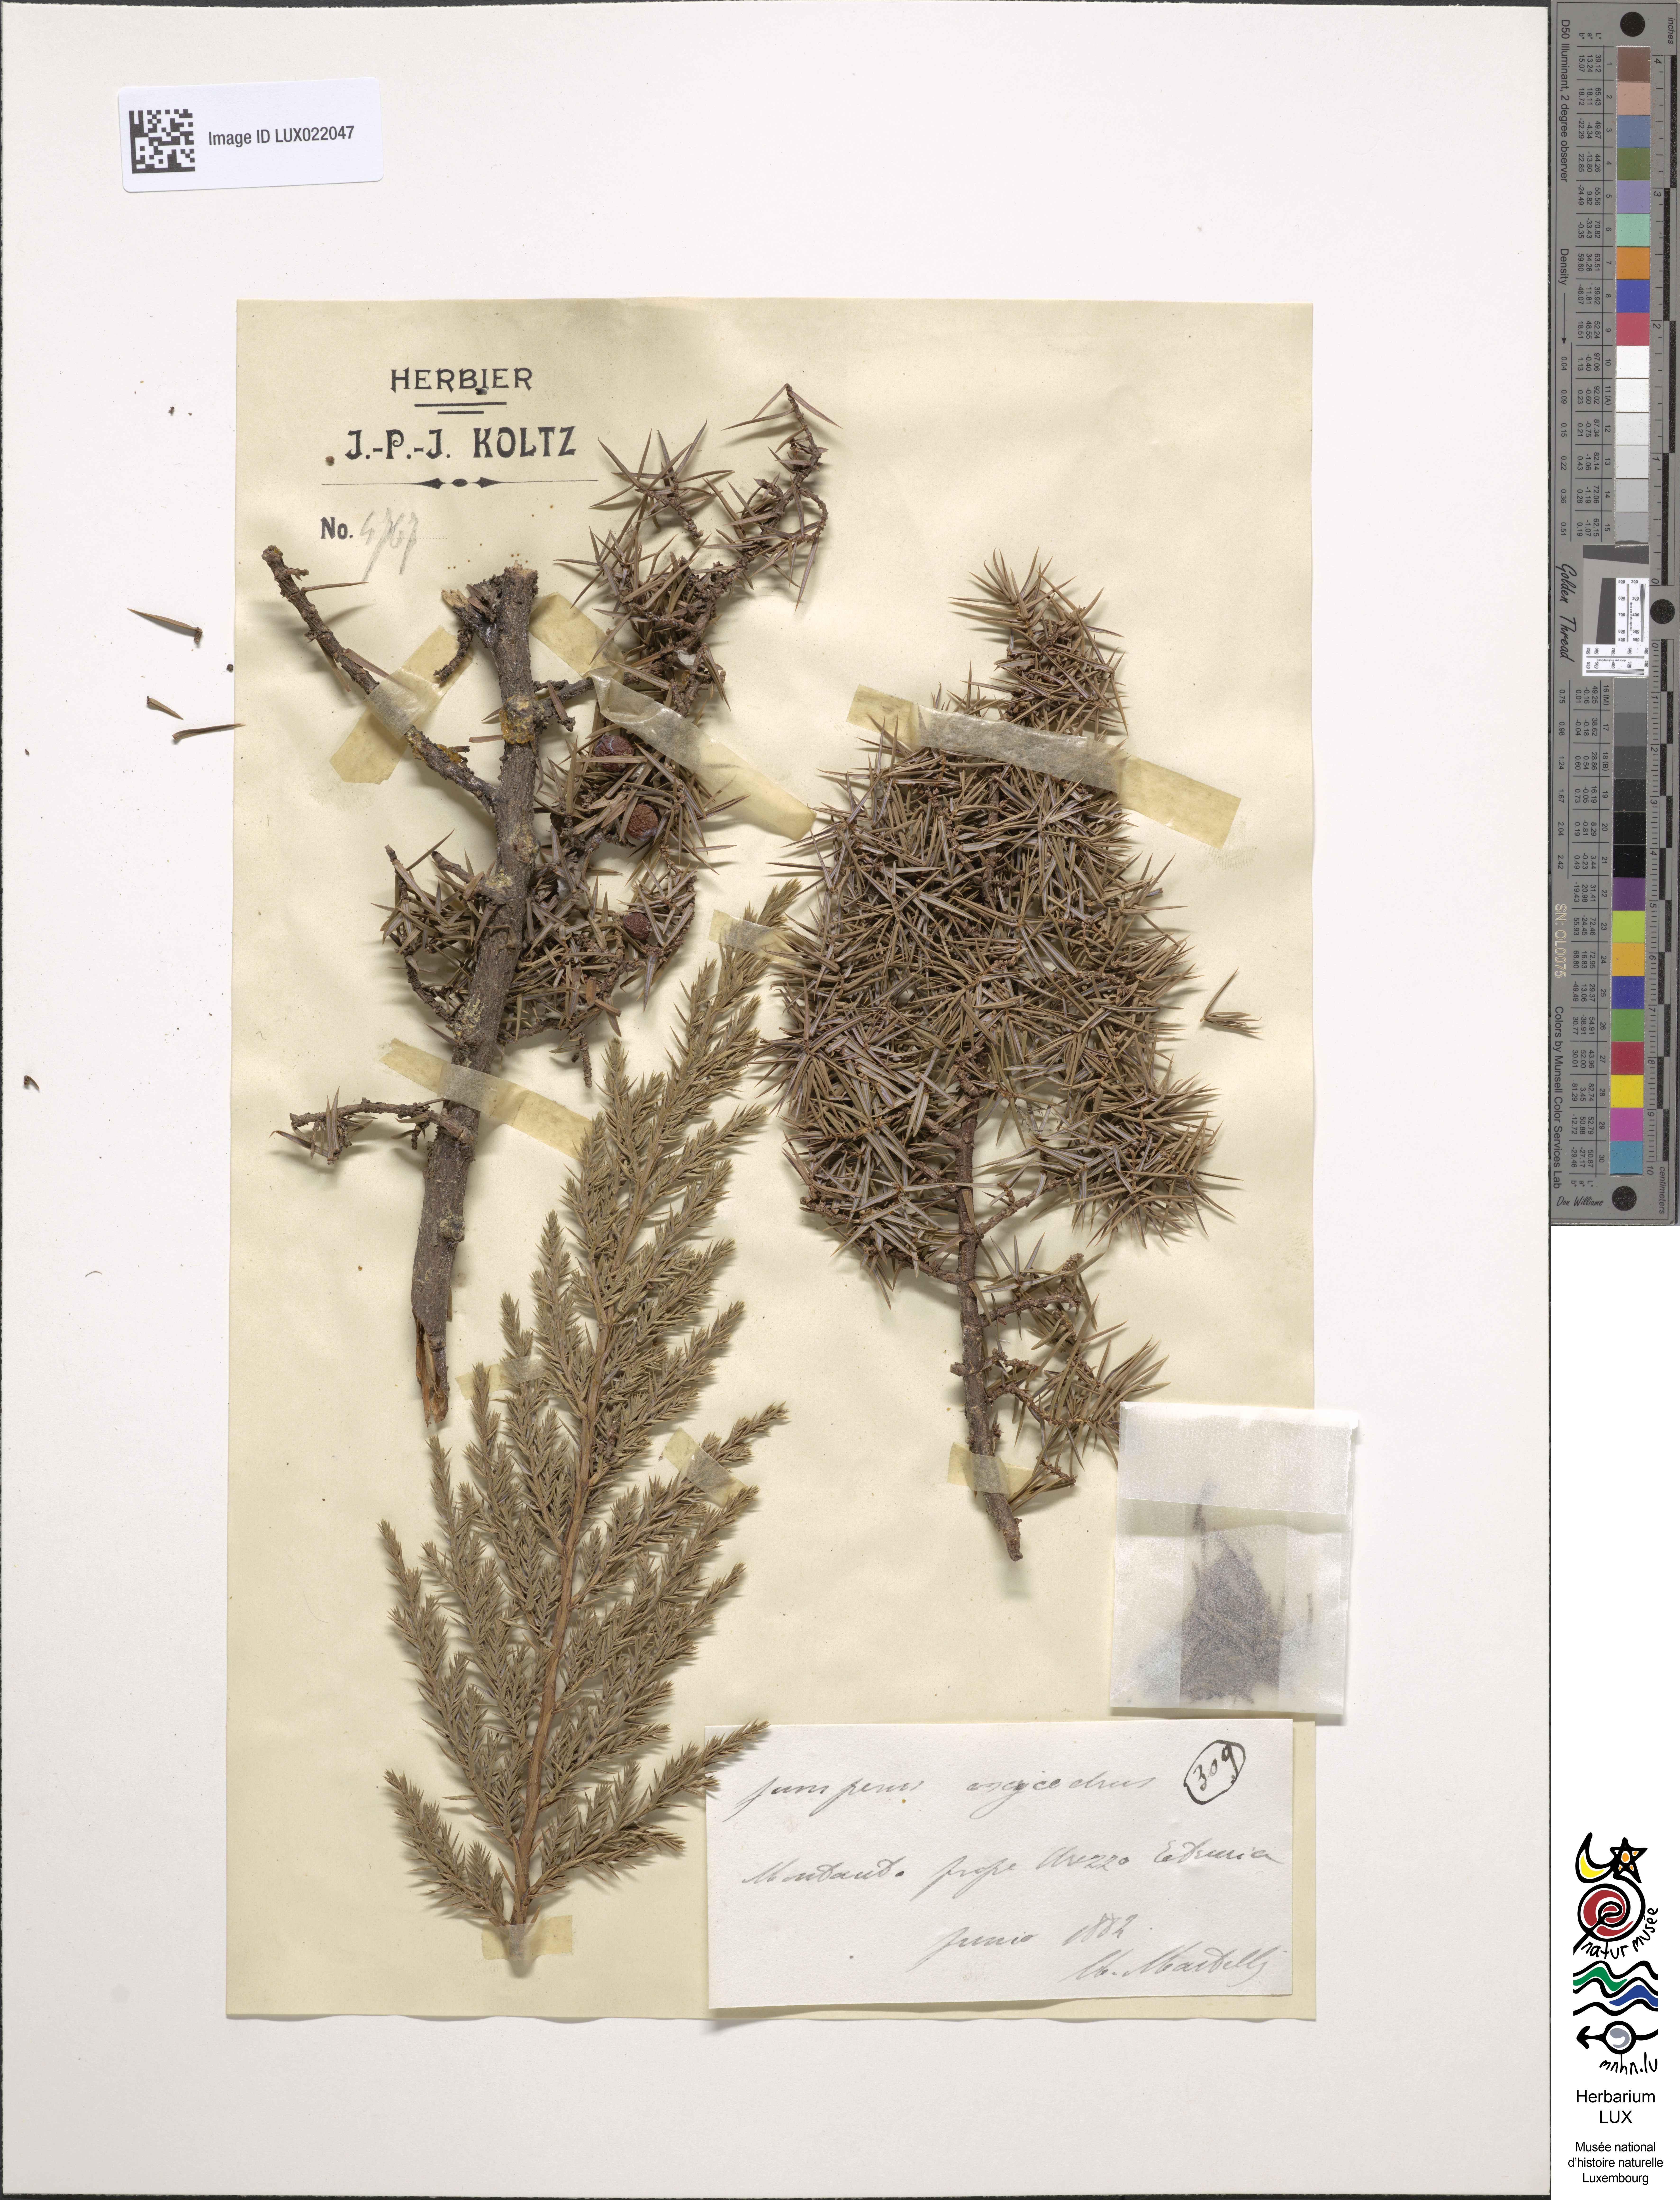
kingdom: Plantae
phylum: Tracheophyta
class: Pinopsida
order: Pinales
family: Cupressaceae
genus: Juniperus
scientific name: Juniperus oxycedrus
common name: Prickly juniper
